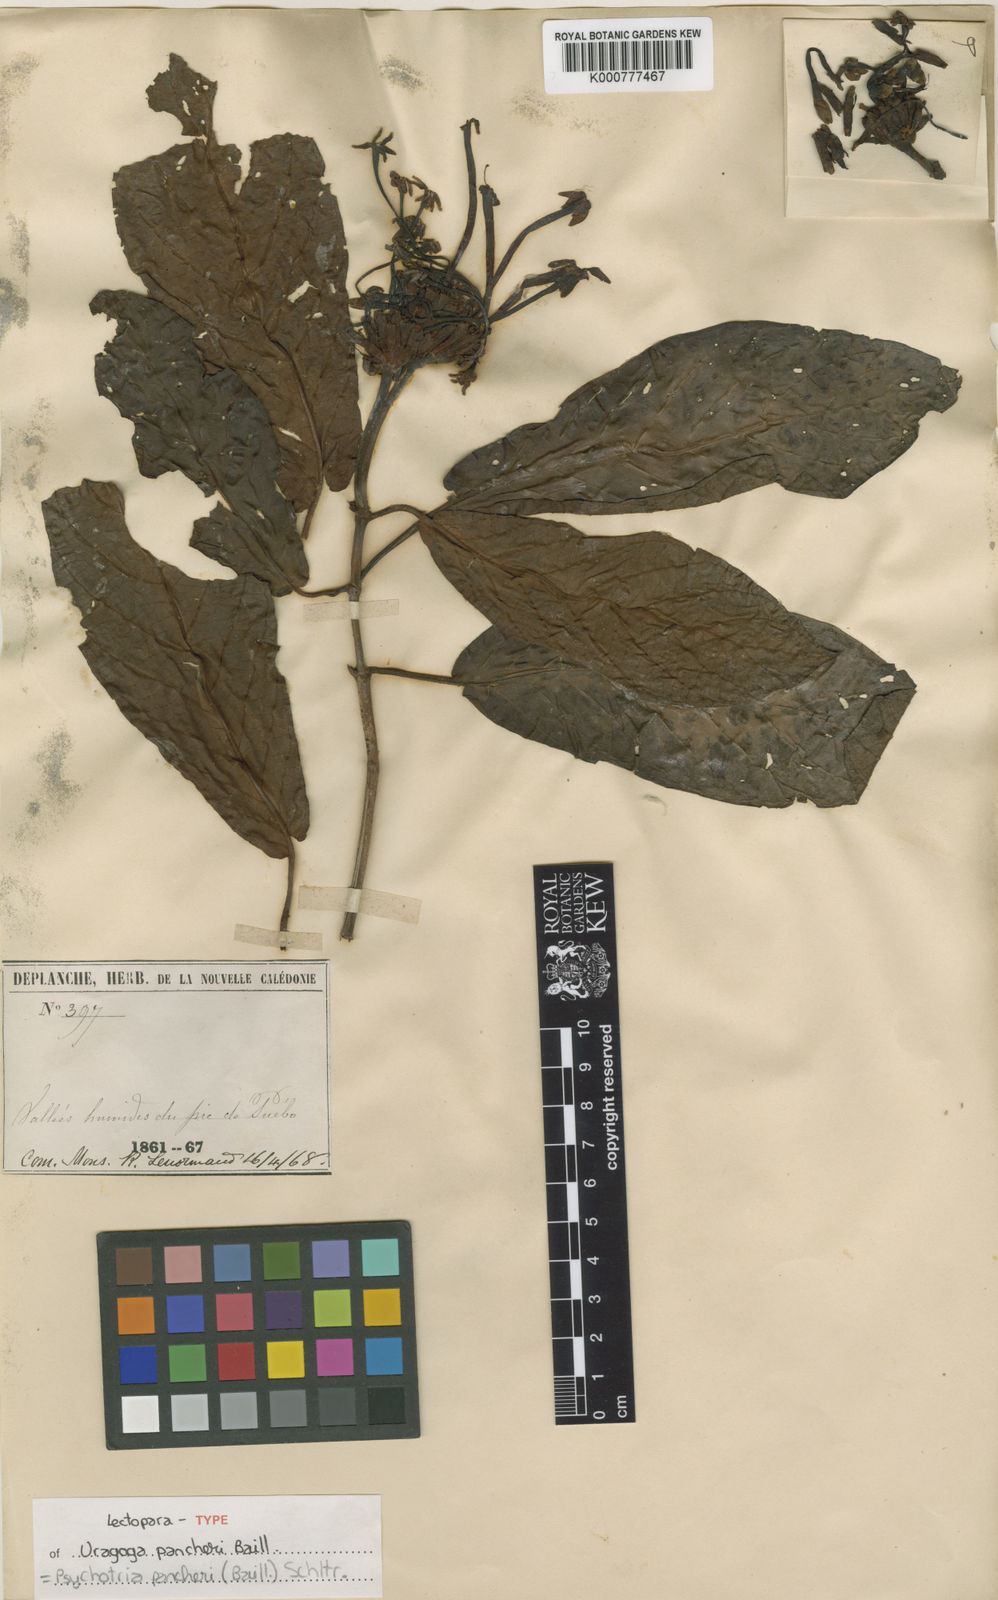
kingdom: Plantae
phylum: Tracheophyta
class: Magnoliopsida
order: Gentianales
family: Rubiaceae
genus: Psychotria
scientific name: Psychotria pancheri
